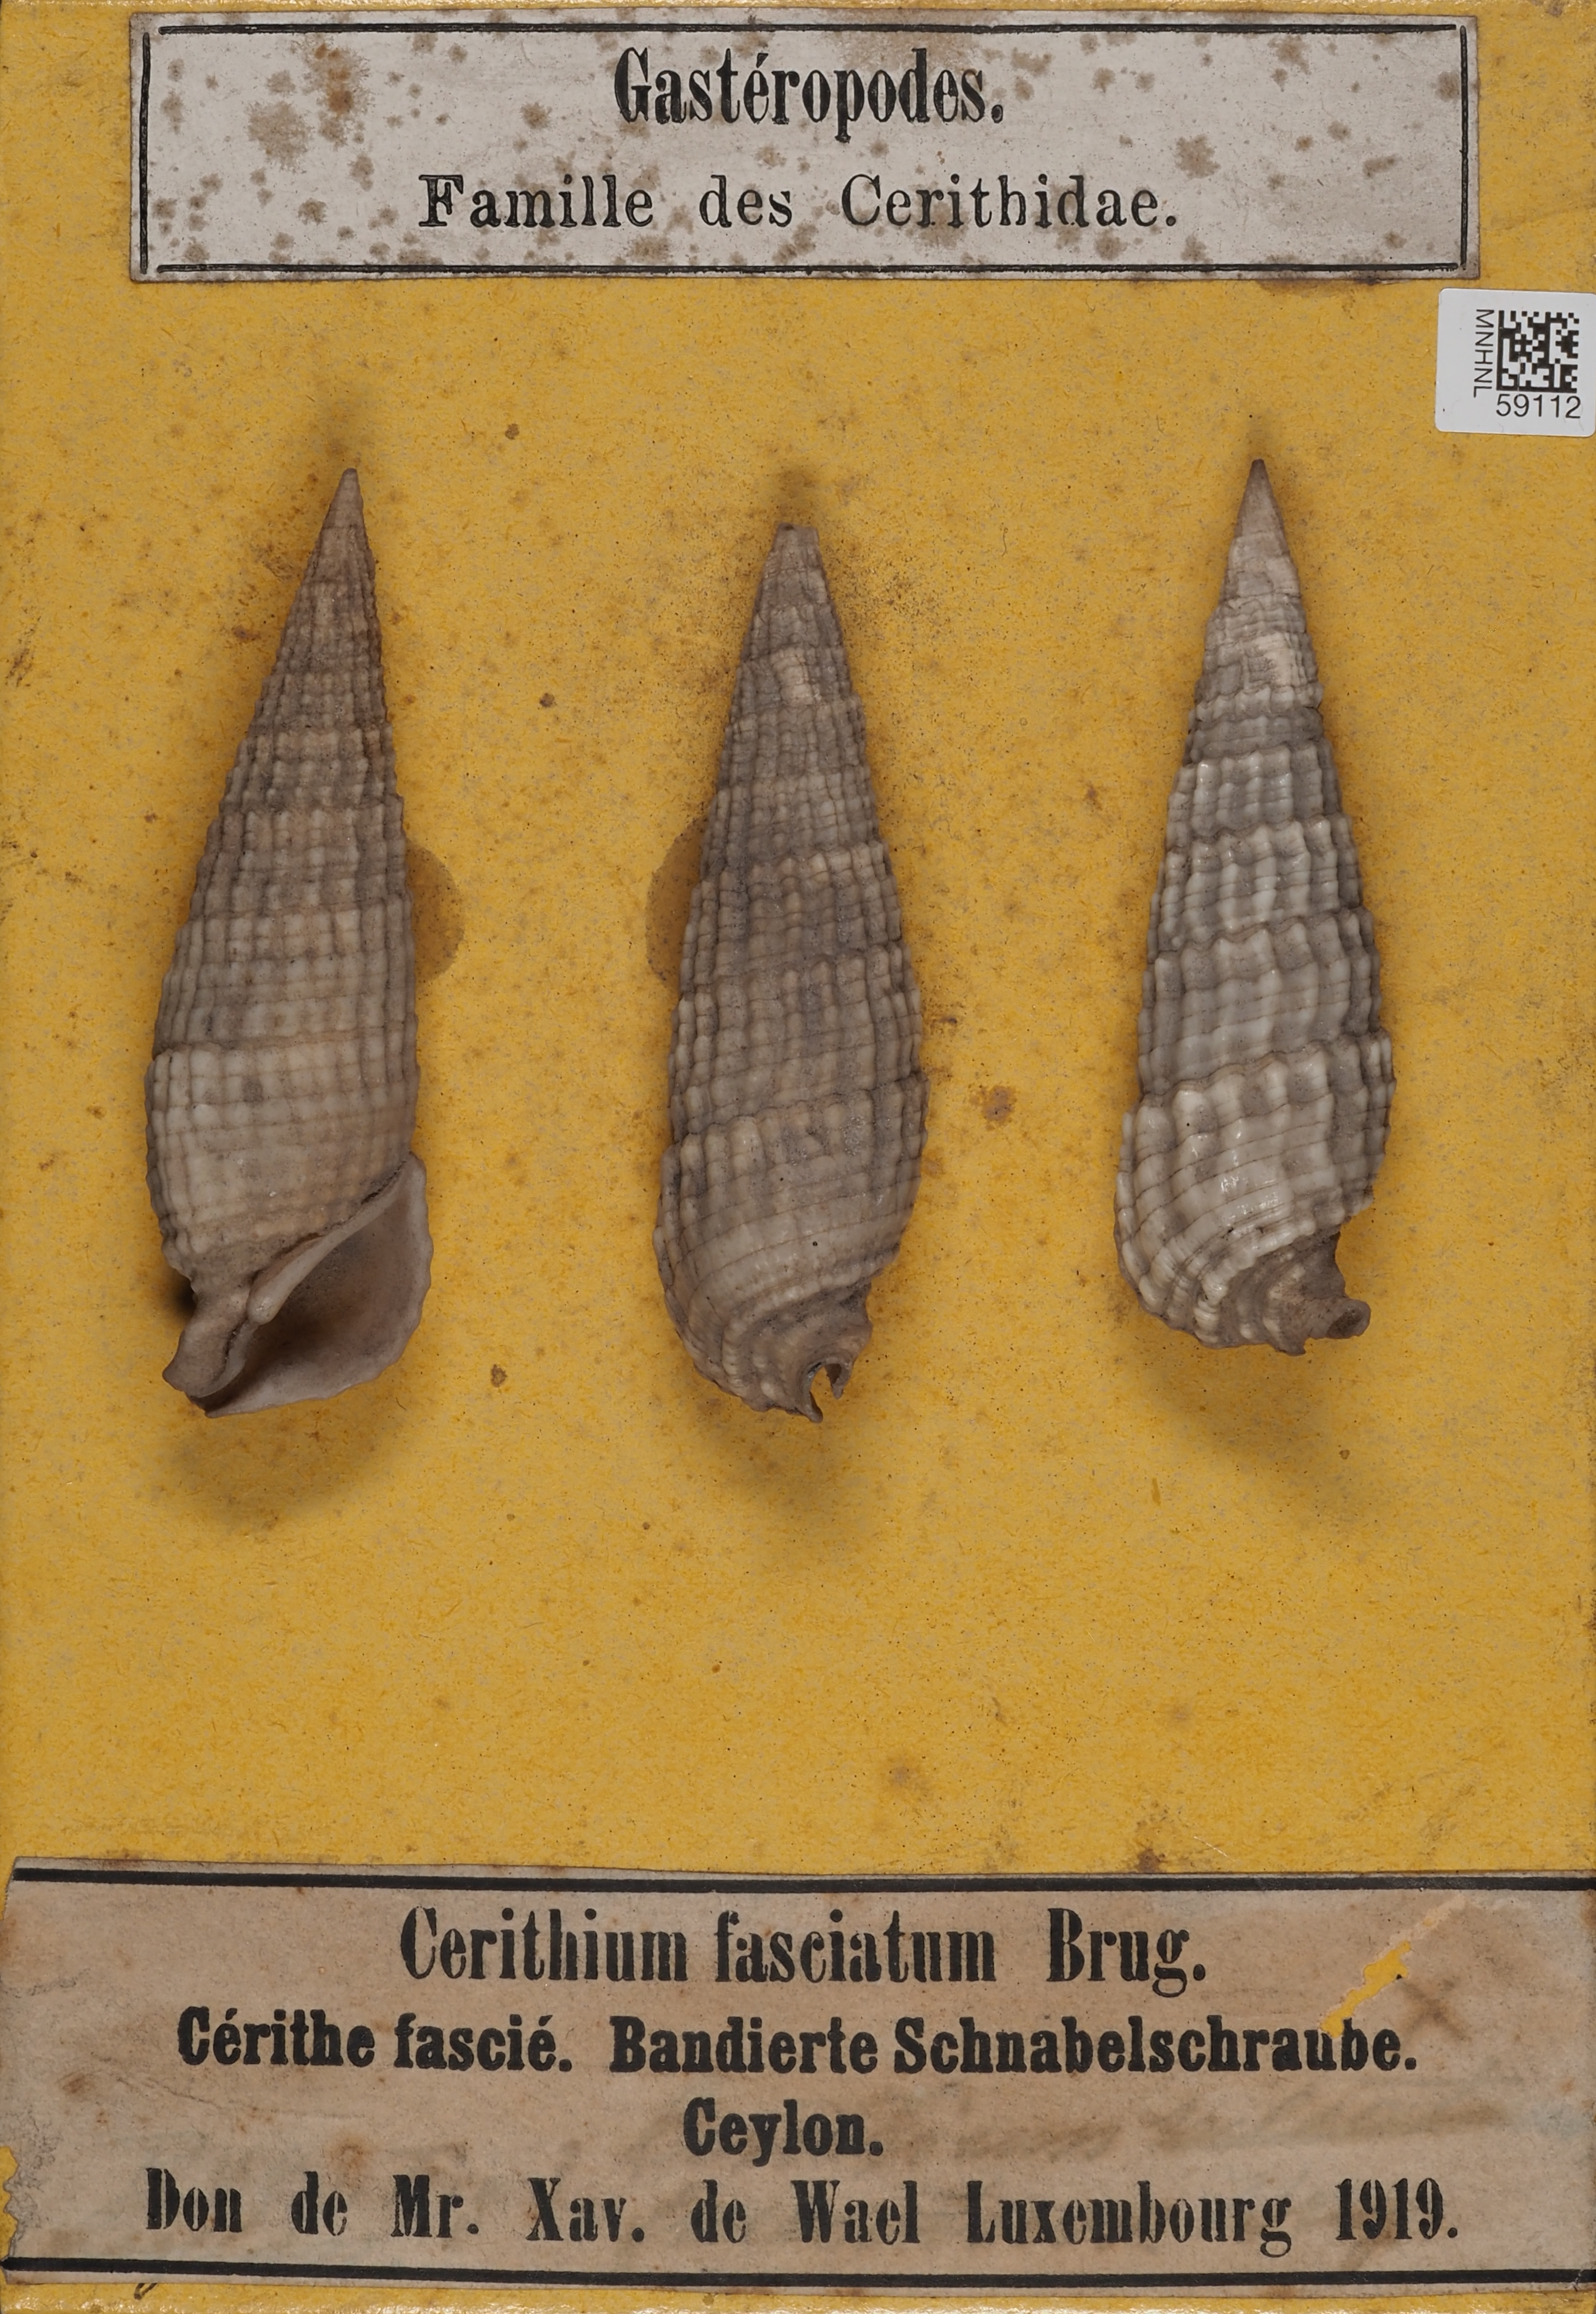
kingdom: Animalia
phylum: Mollusca
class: Gastropoda
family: Cerithiidae
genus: Rhinoclavis
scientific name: Rhinoclavis fasciata
